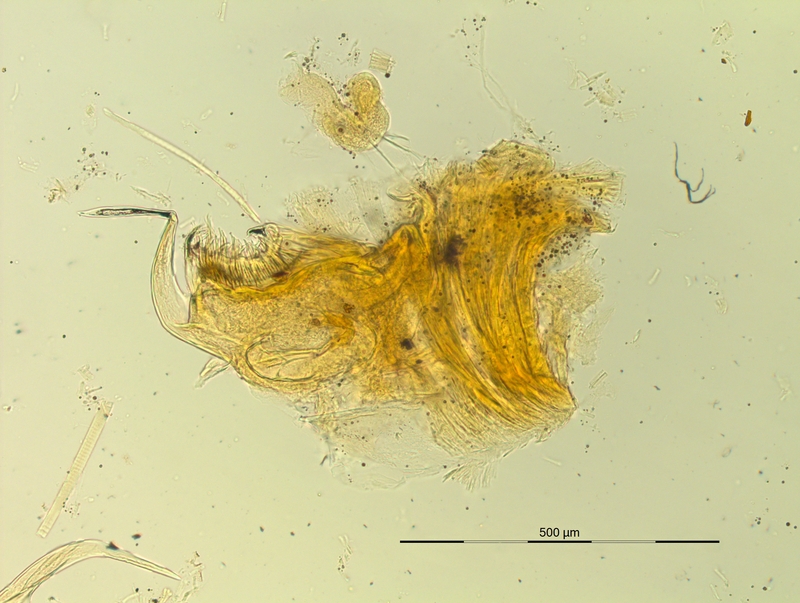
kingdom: Animalia
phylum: Arthropoda
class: Diplopoda
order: Chordeumatida
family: Craspedosomatidae
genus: Pyrgocyphosoma
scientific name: Pyrgocyphosoma brembanum
